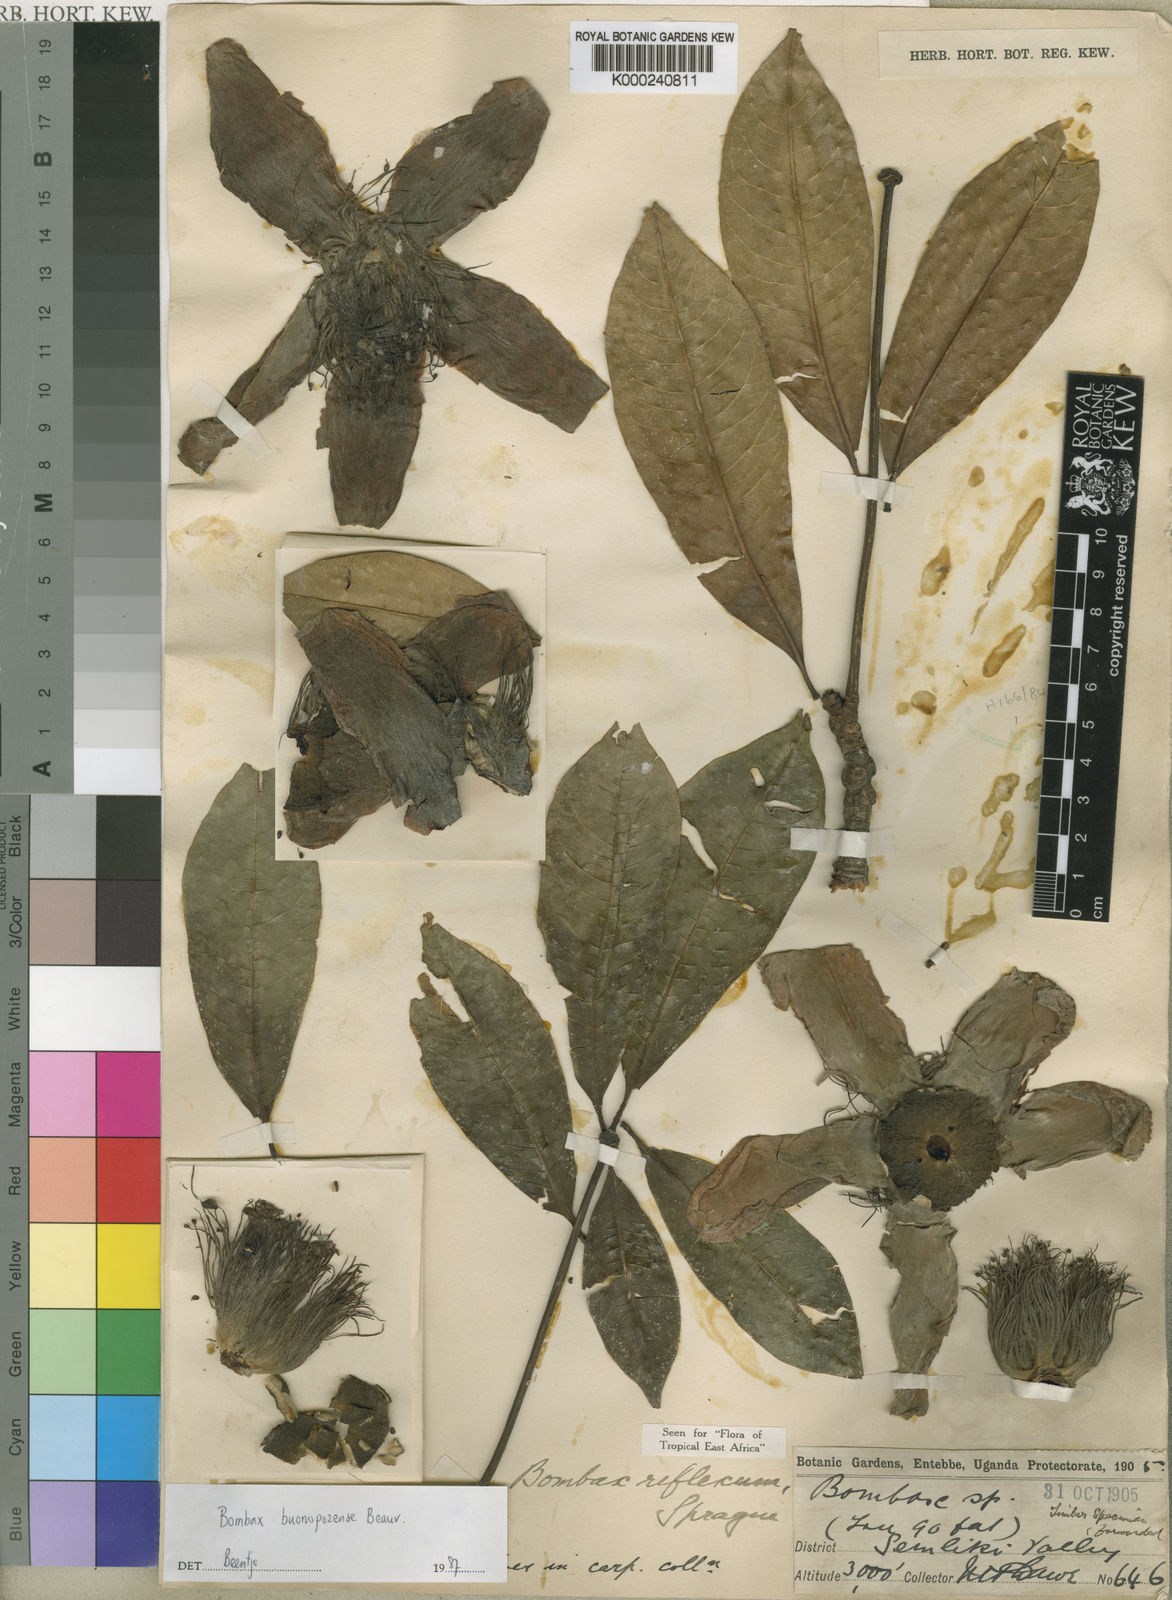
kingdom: Plantae
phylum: Tracheophyta
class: Magnoliopsida
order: Malvales
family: Malvaceae
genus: Bombax
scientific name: Bombax
